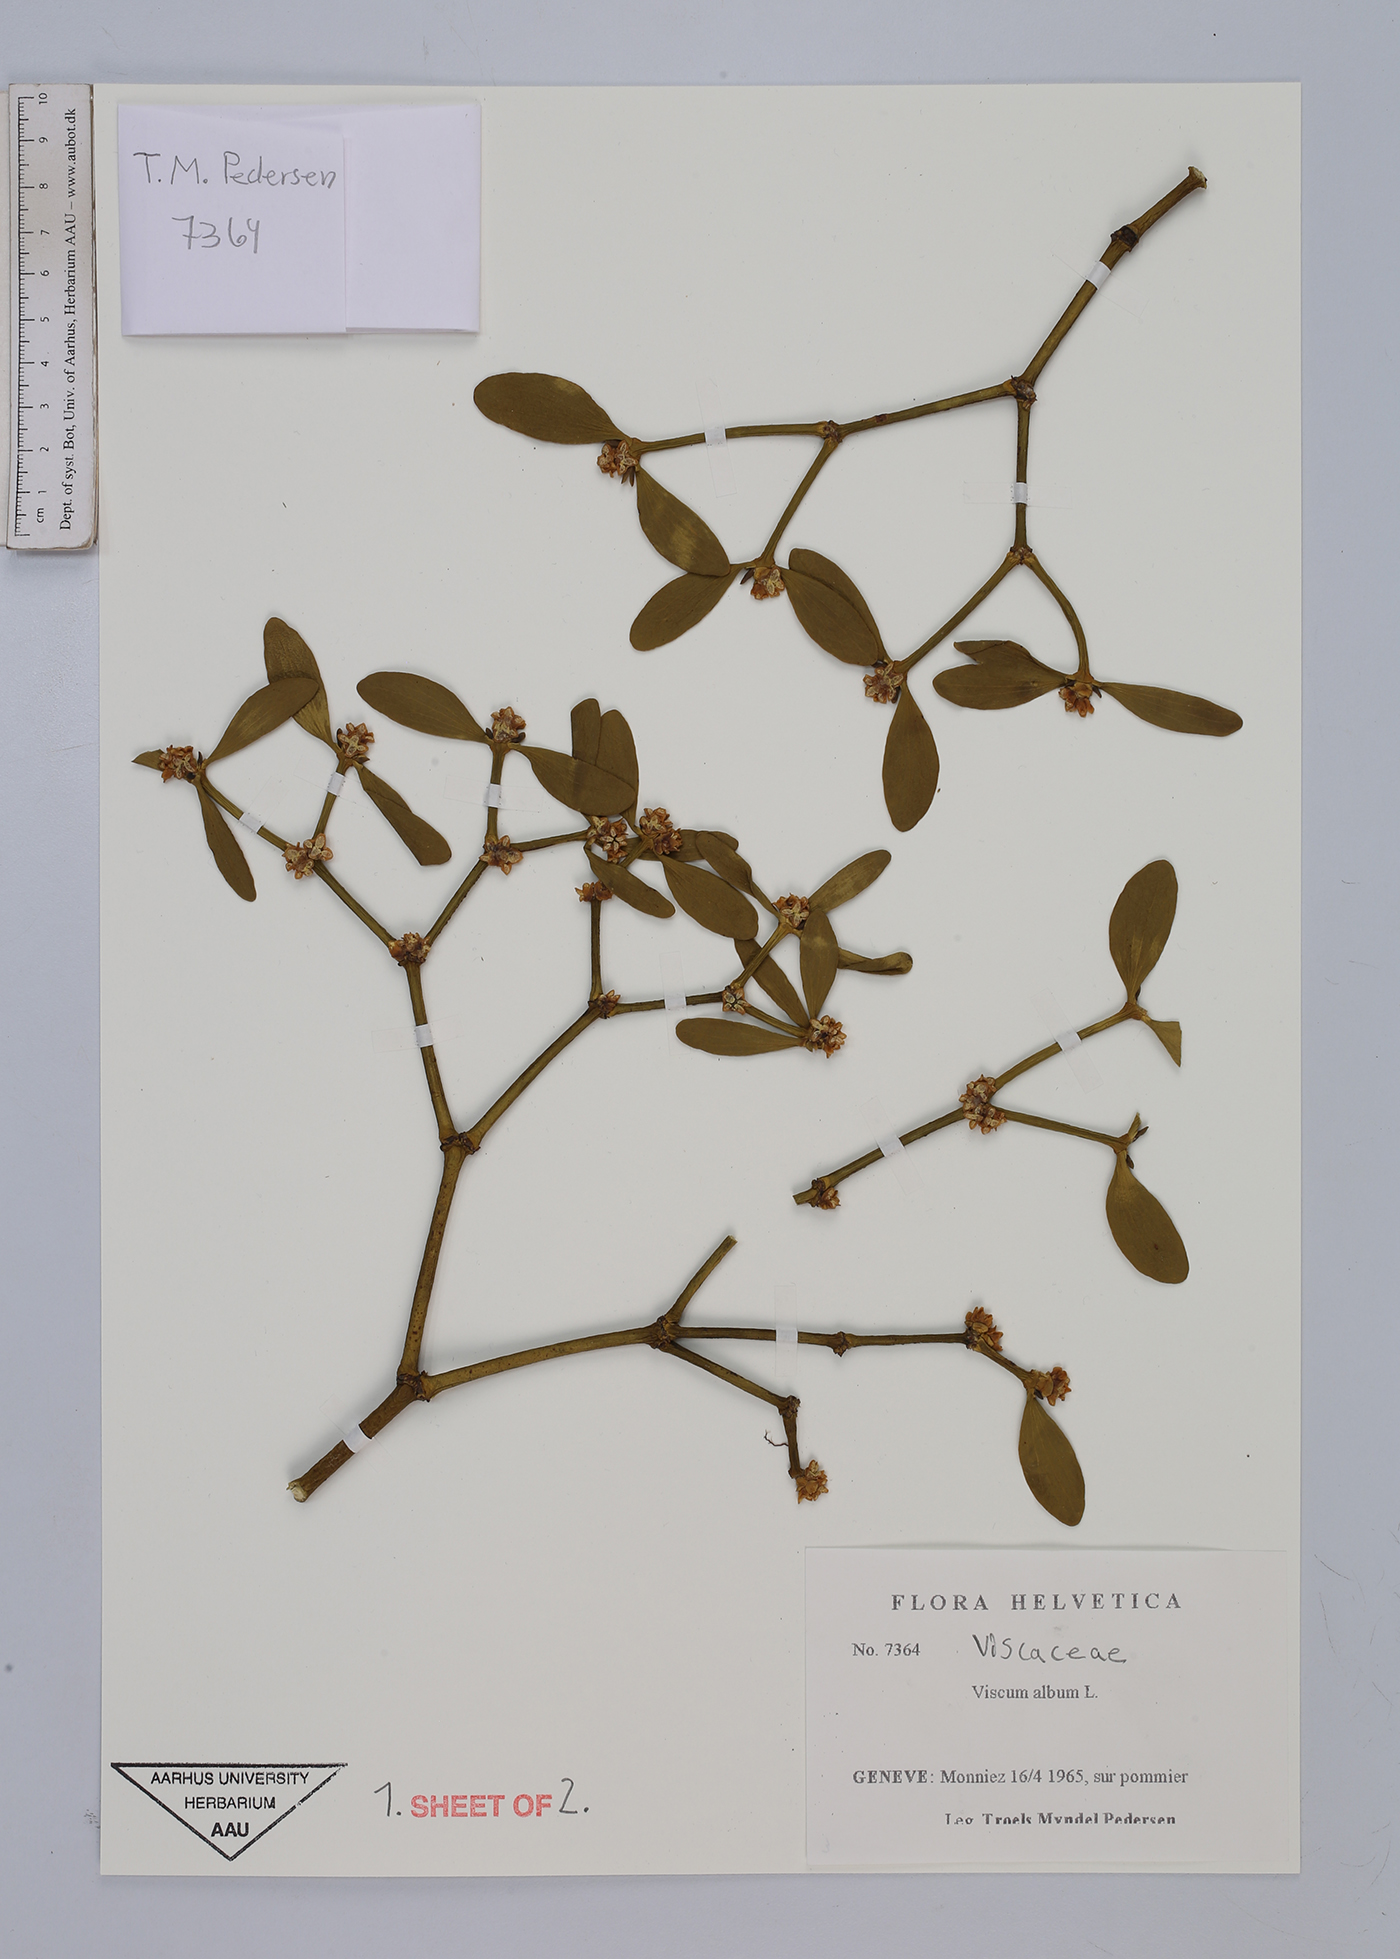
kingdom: Plantae
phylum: Tracheophyta
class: Magnoliopsida
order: Santalales
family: Viscaceae
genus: Viscum
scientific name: Viscum album
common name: Mistletoe
